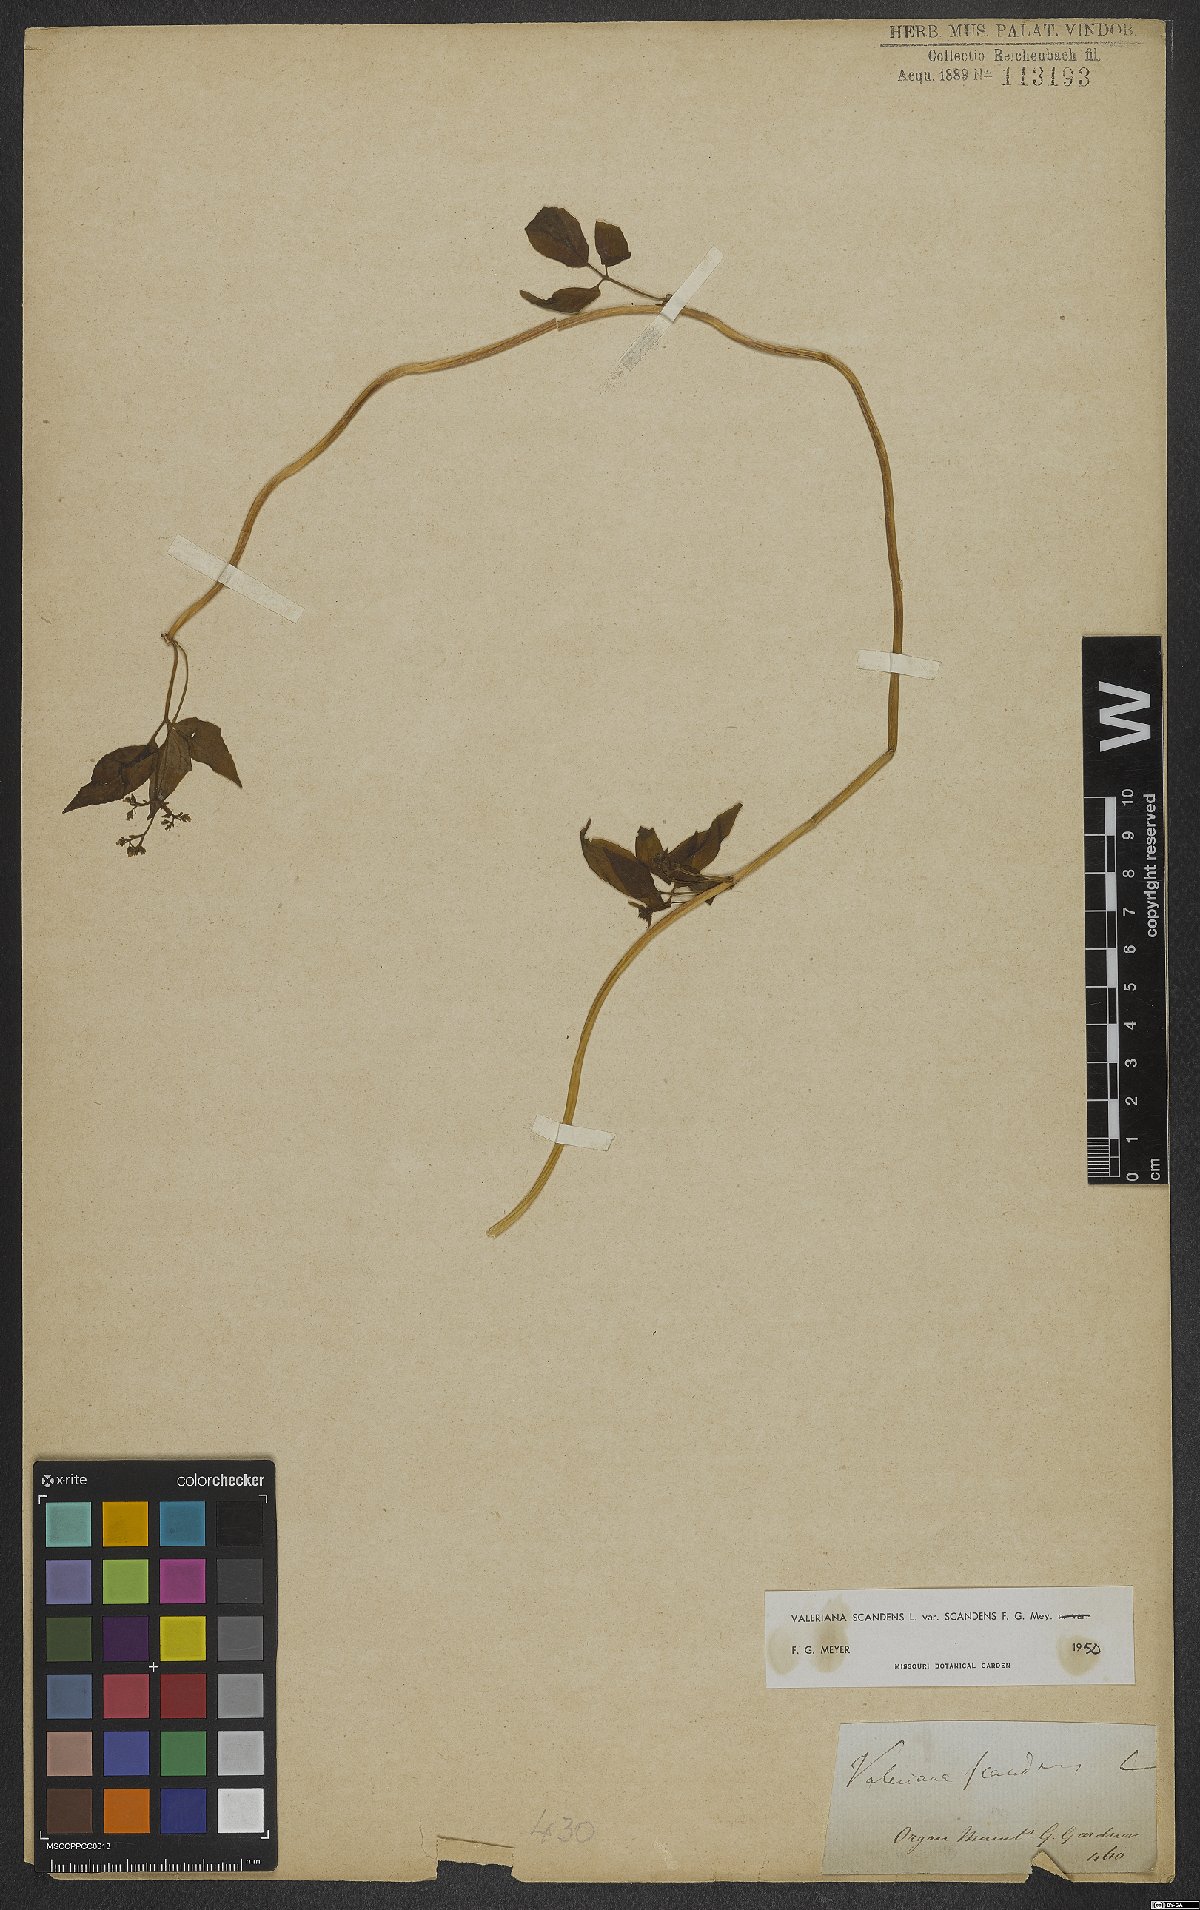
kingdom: Plantae
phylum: Tracheophyta
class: Magnoliopsida
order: Dipsacales
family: Caprifoliaceae
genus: Valeriana
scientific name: Valeriana scandens
